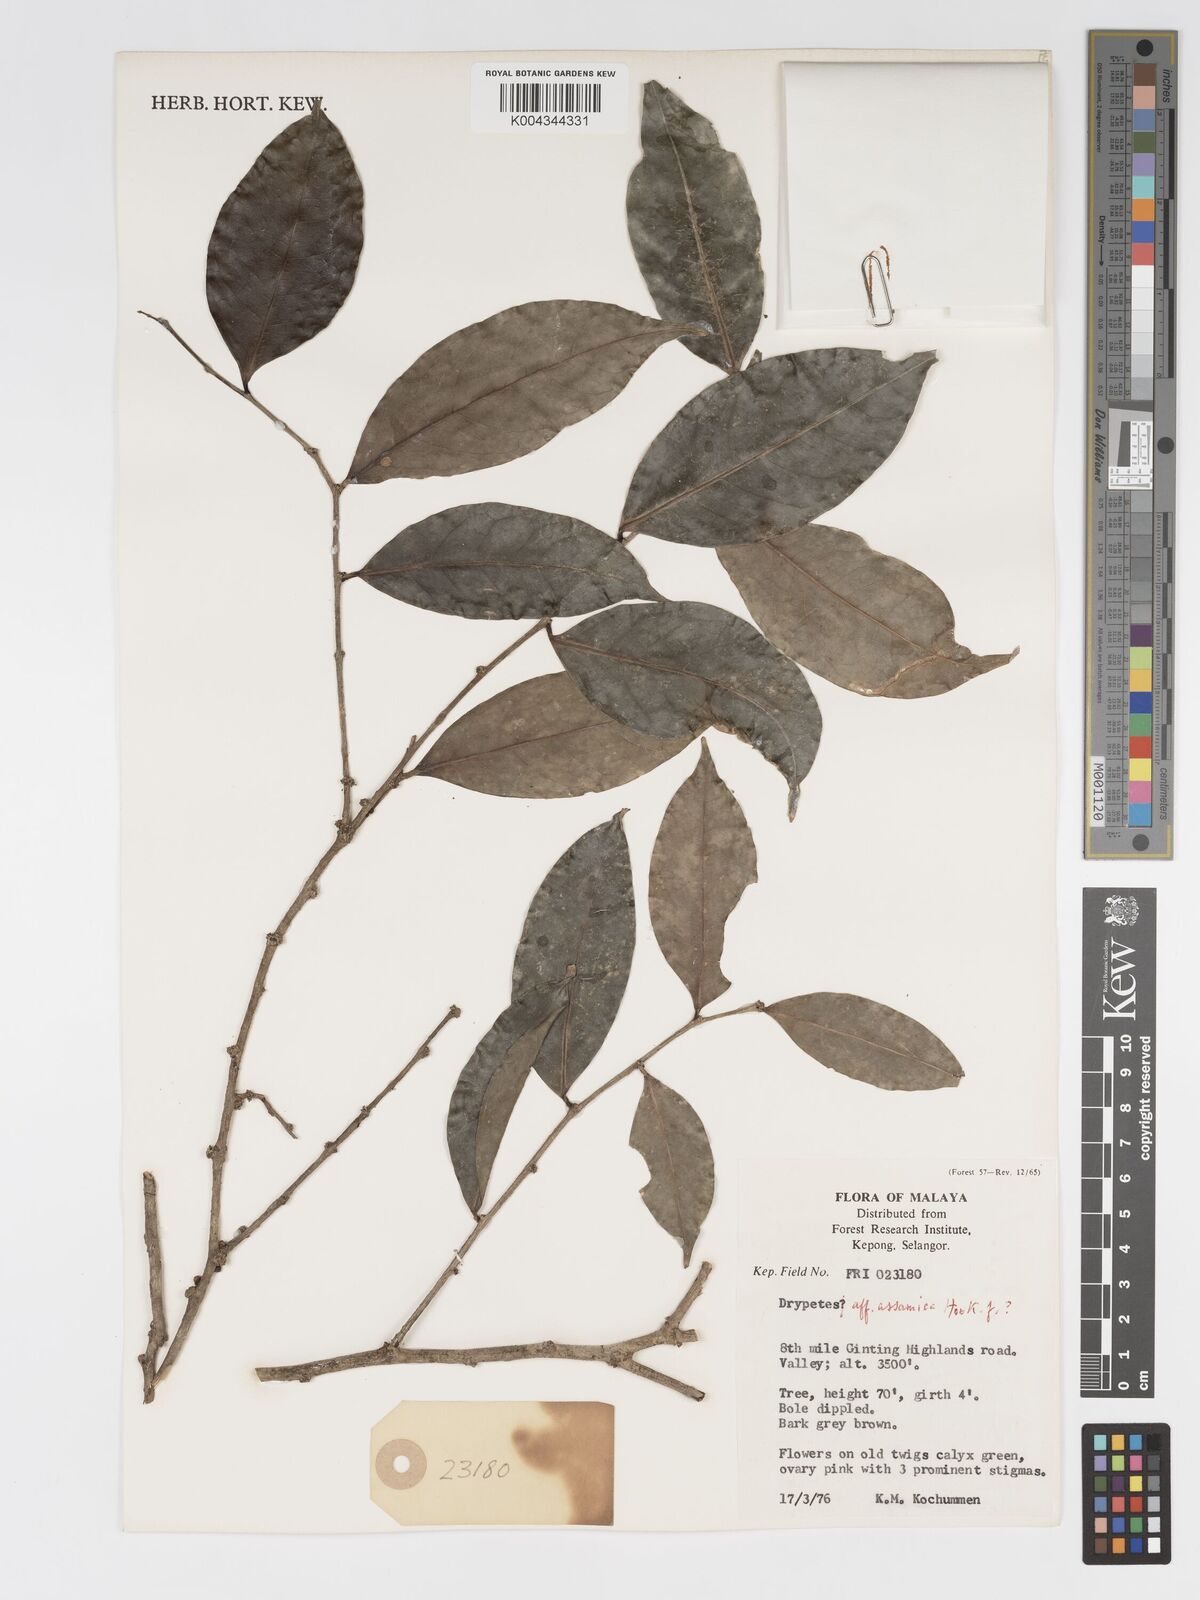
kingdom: Plantae
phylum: Tracheophyta
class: Magnoliopsida
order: Malpighiales
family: Putranjivaceae
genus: Drypetes
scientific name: Drypetes assamica
